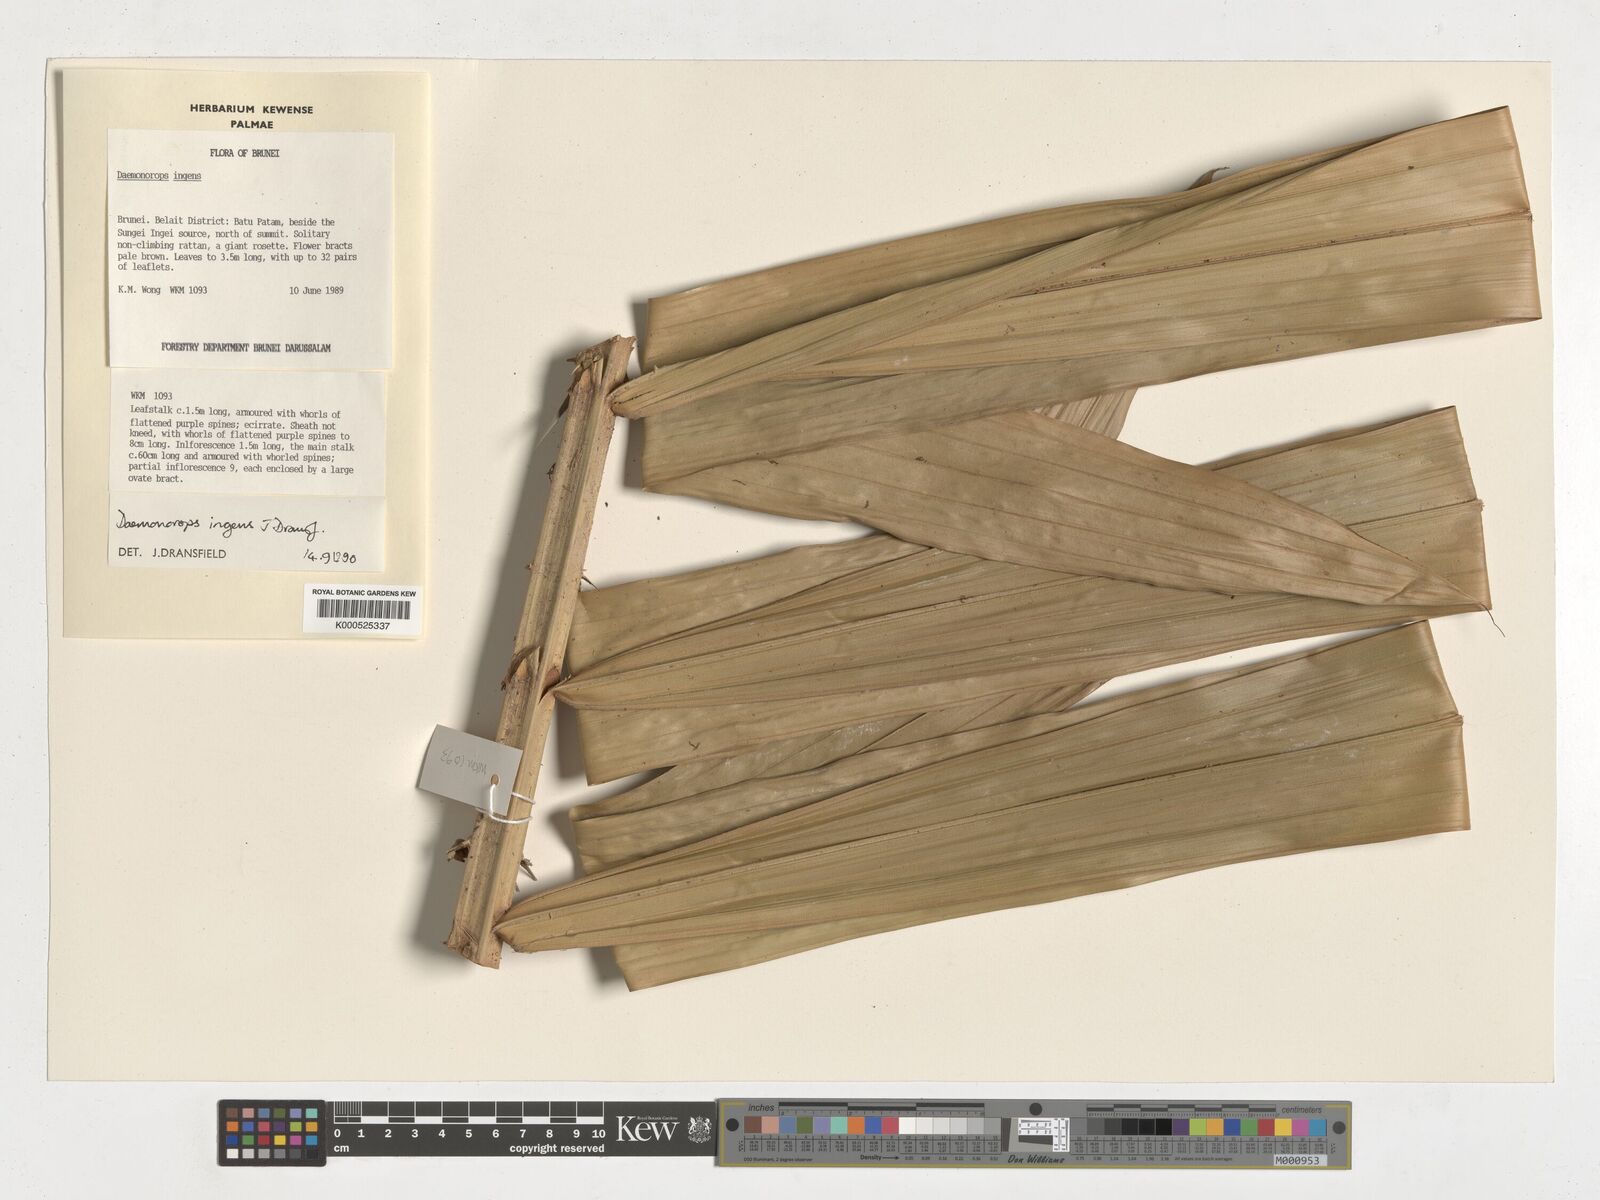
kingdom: Plantae
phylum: Tracheophyta
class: Liliopsida
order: Arecales
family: Arecaceae
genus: Calamus
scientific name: Calamus ingens
